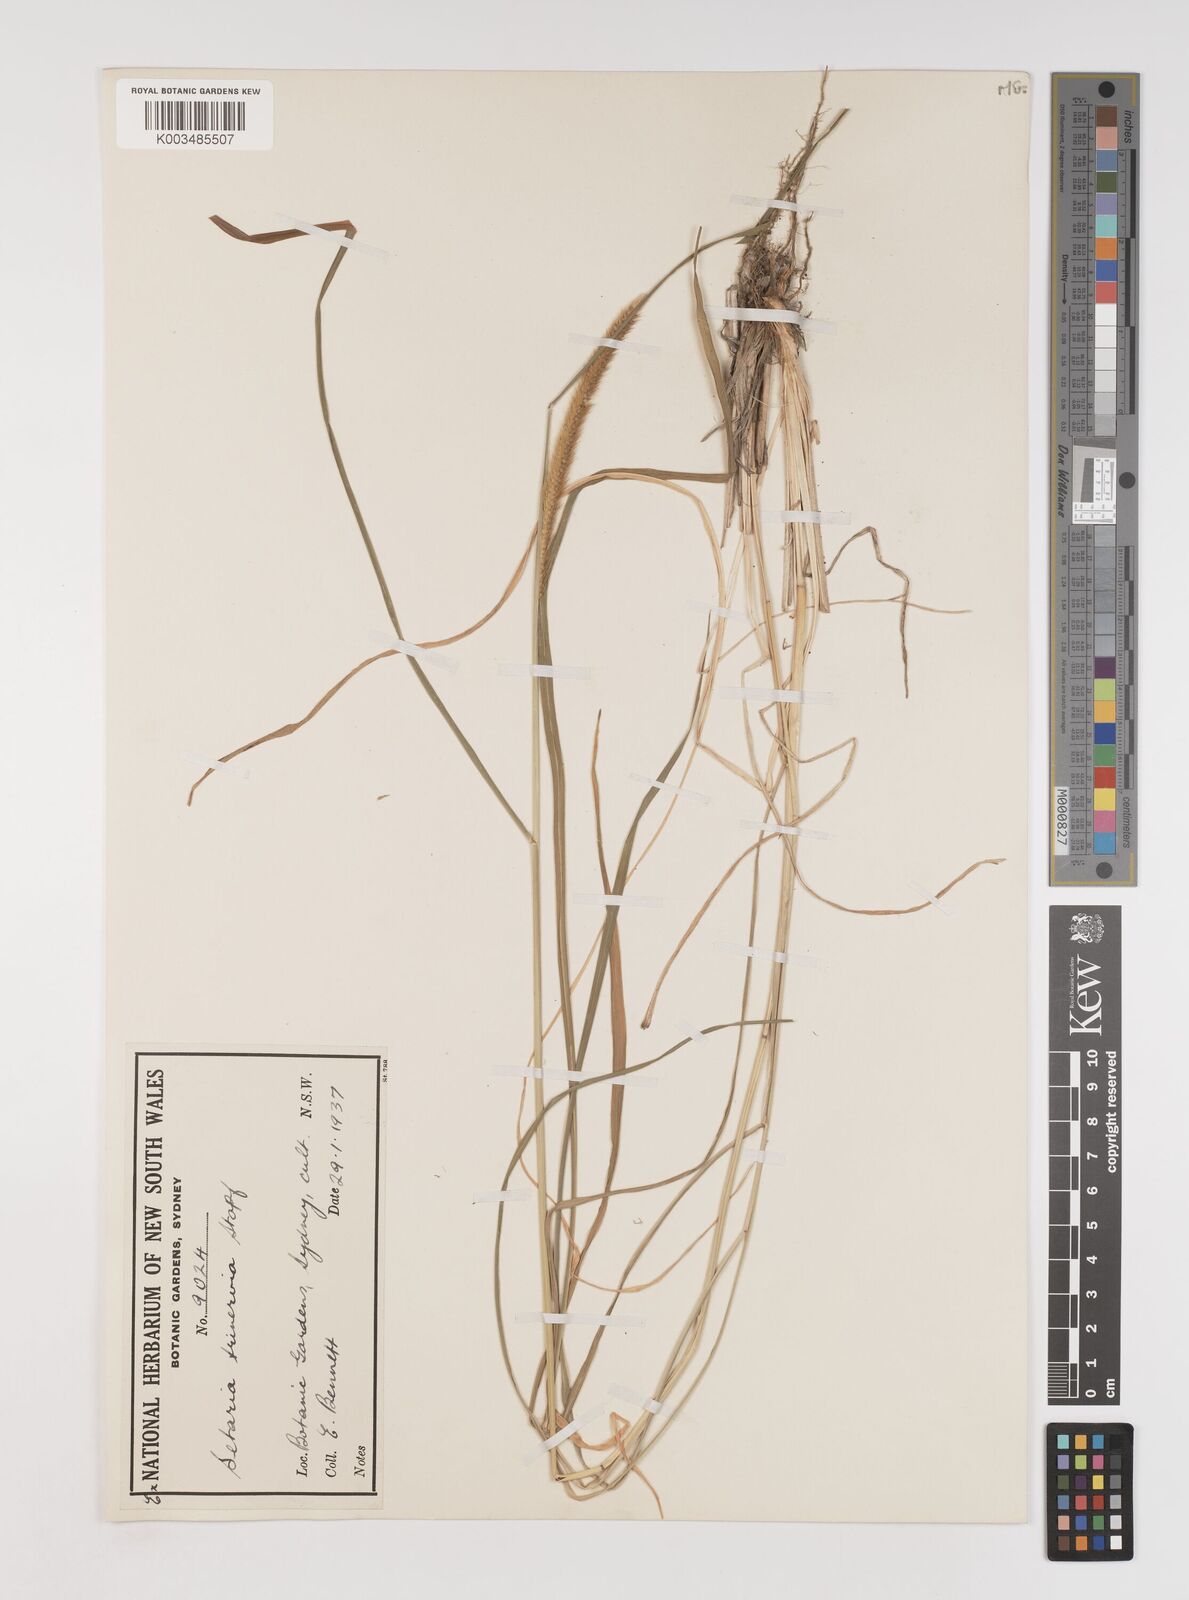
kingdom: Plantae
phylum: Tracheophyta
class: Liliopsida
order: Poales
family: Poaceae
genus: Setaria
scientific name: Setaria sphacelata
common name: African bristlegrass
